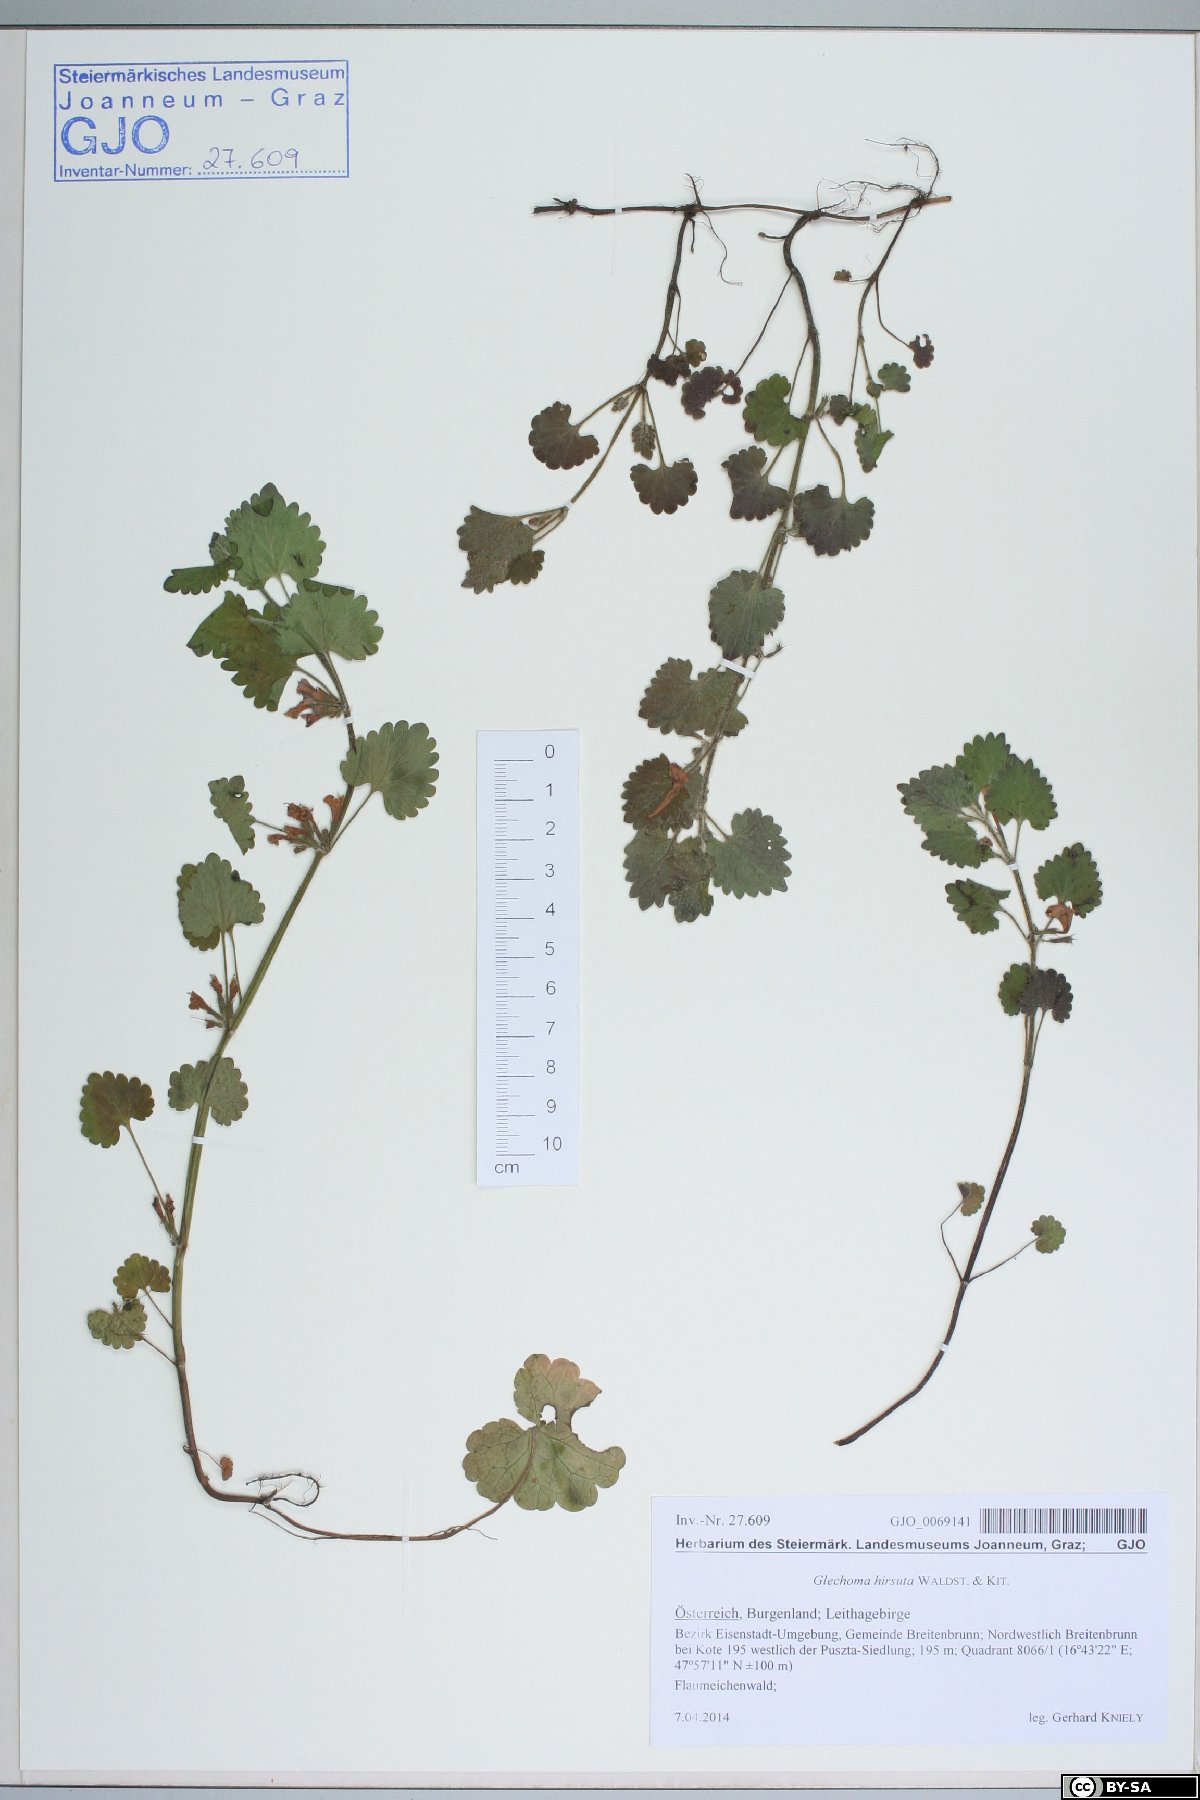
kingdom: Plantae
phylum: Tracheophyta
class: Magnoliopsida
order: Lamiales
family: Lamiaceae
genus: Glechoma
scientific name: Glechoma hirsuta
